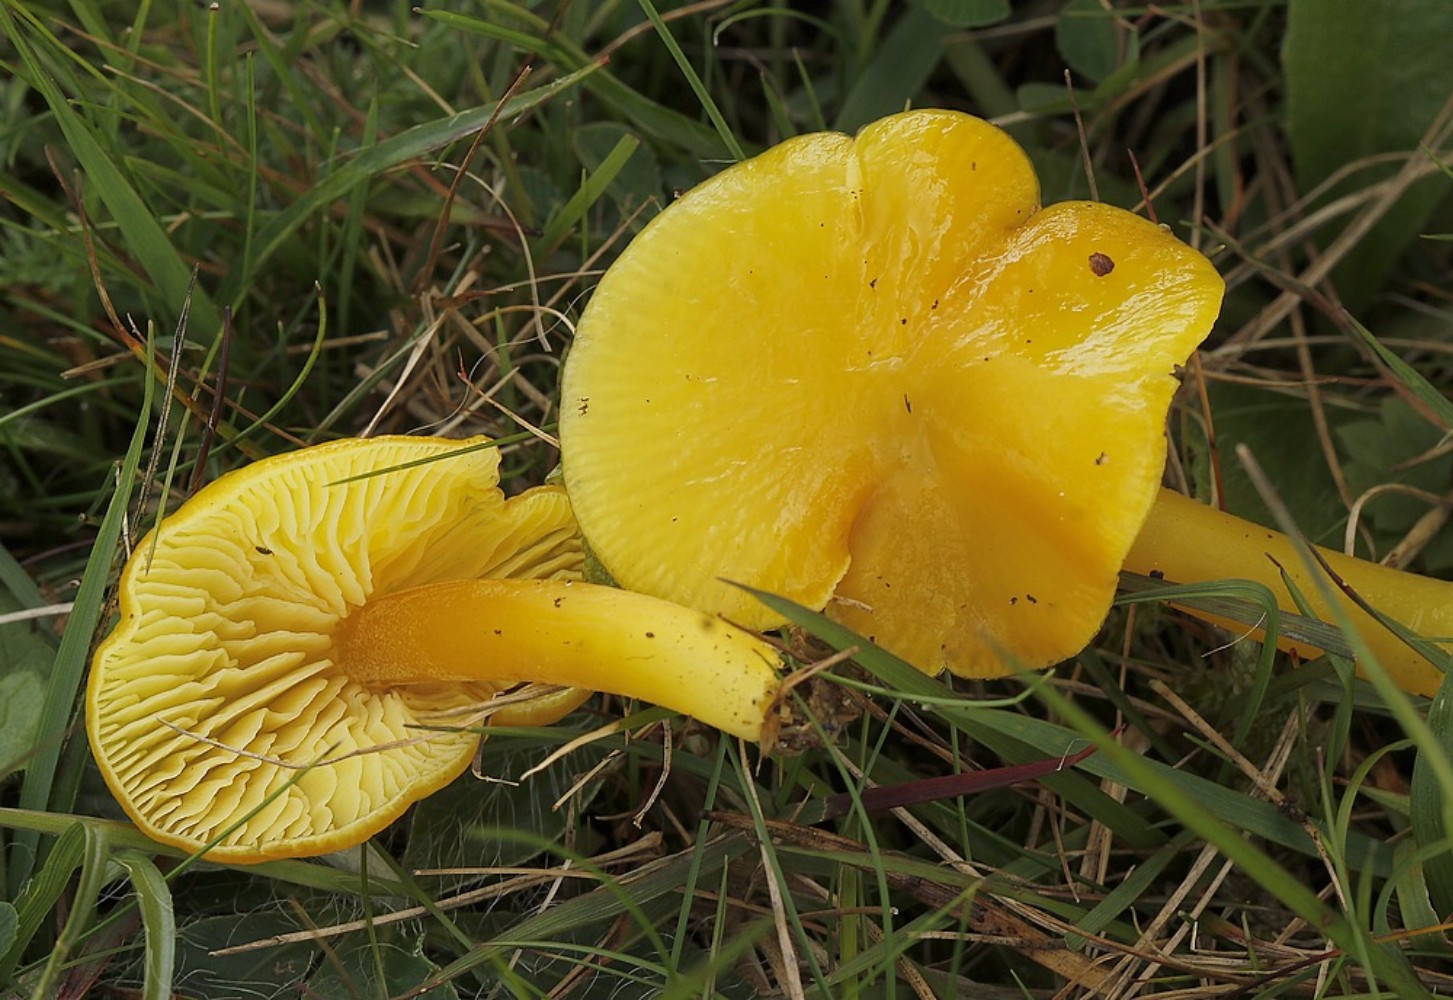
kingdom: Fungi
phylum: Basidiomycota
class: Agaricomycetes
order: Agaricales
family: Hygrophoraceae
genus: Hygrocybe
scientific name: Hygrocybe chlorophana
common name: gul vokshat
